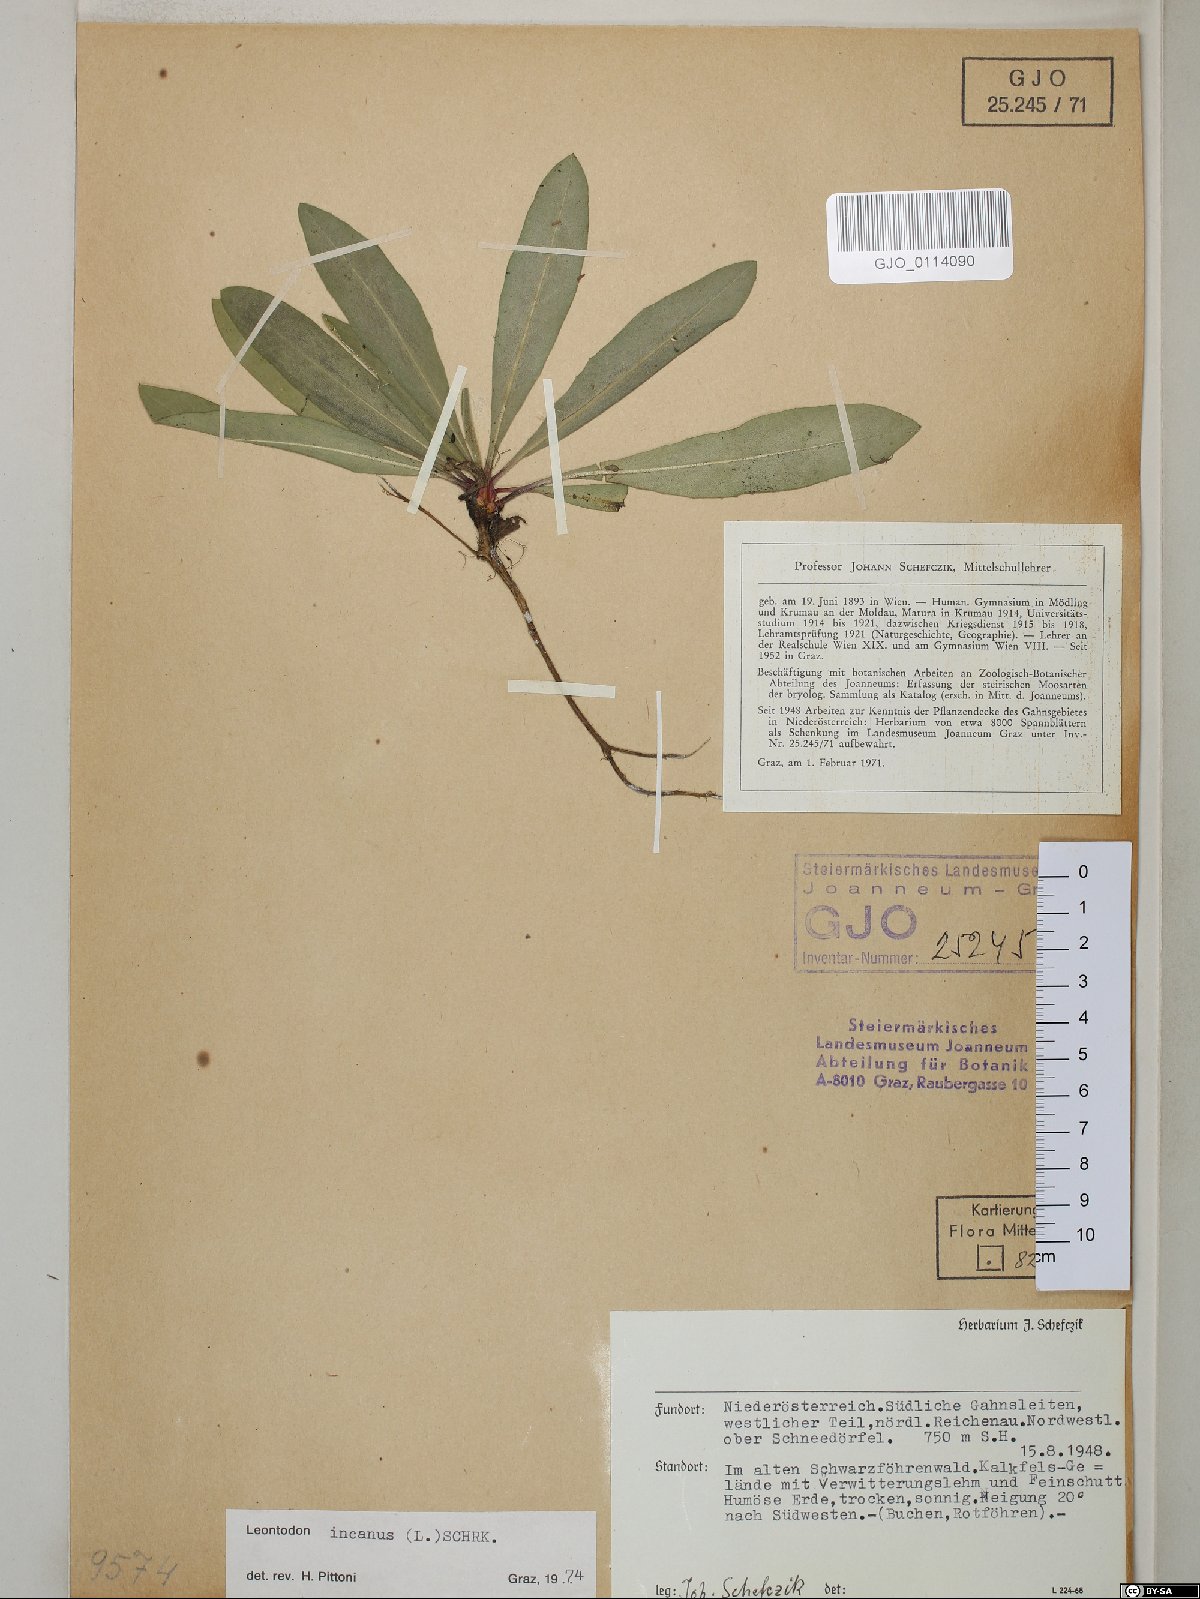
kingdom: Plantae
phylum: Tracheophyta
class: Magnoliopsida
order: Asterales
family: Asteraceae
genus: Leontodon
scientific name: Leontodon incanus
